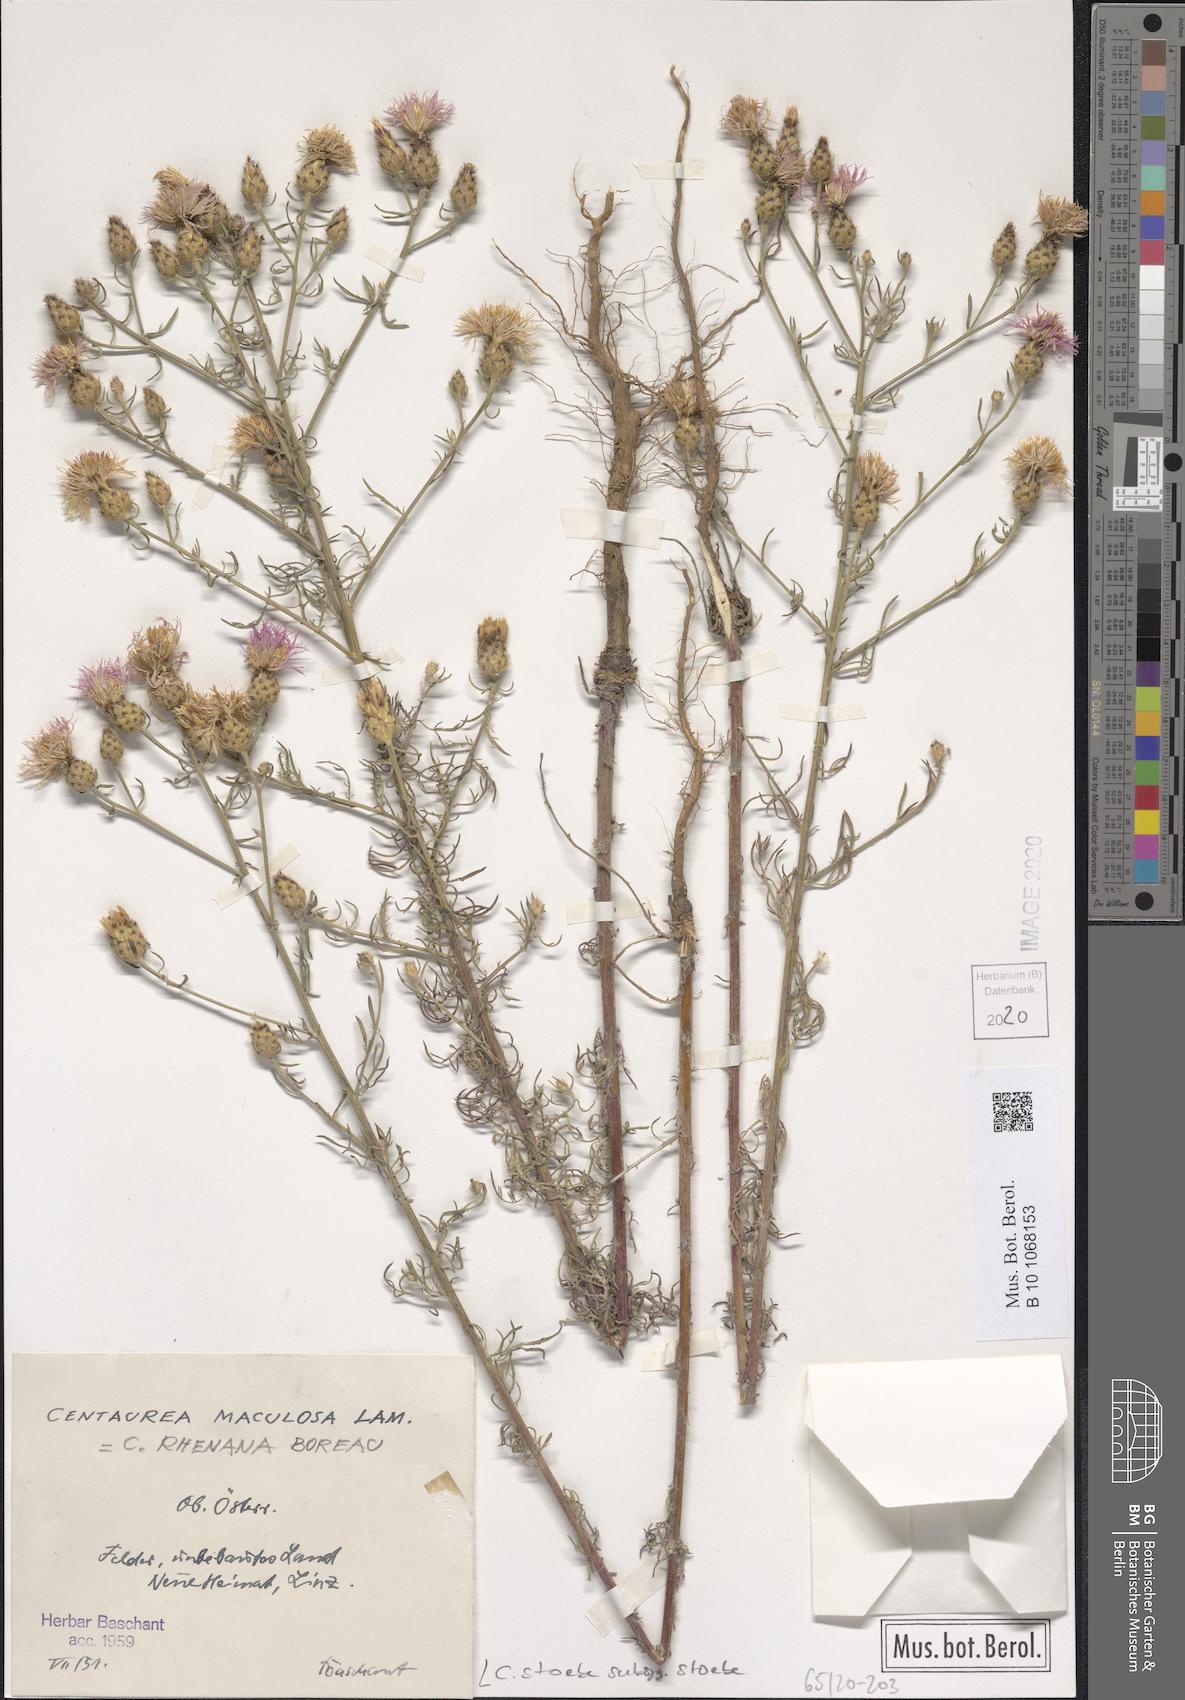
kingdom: Plantae
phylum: Tracheophyta
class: Magnoliopsida
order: Asterales
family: Asteraceae
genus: Centaurea
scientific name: Centaurea stoebe
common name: Spotted knapweed
